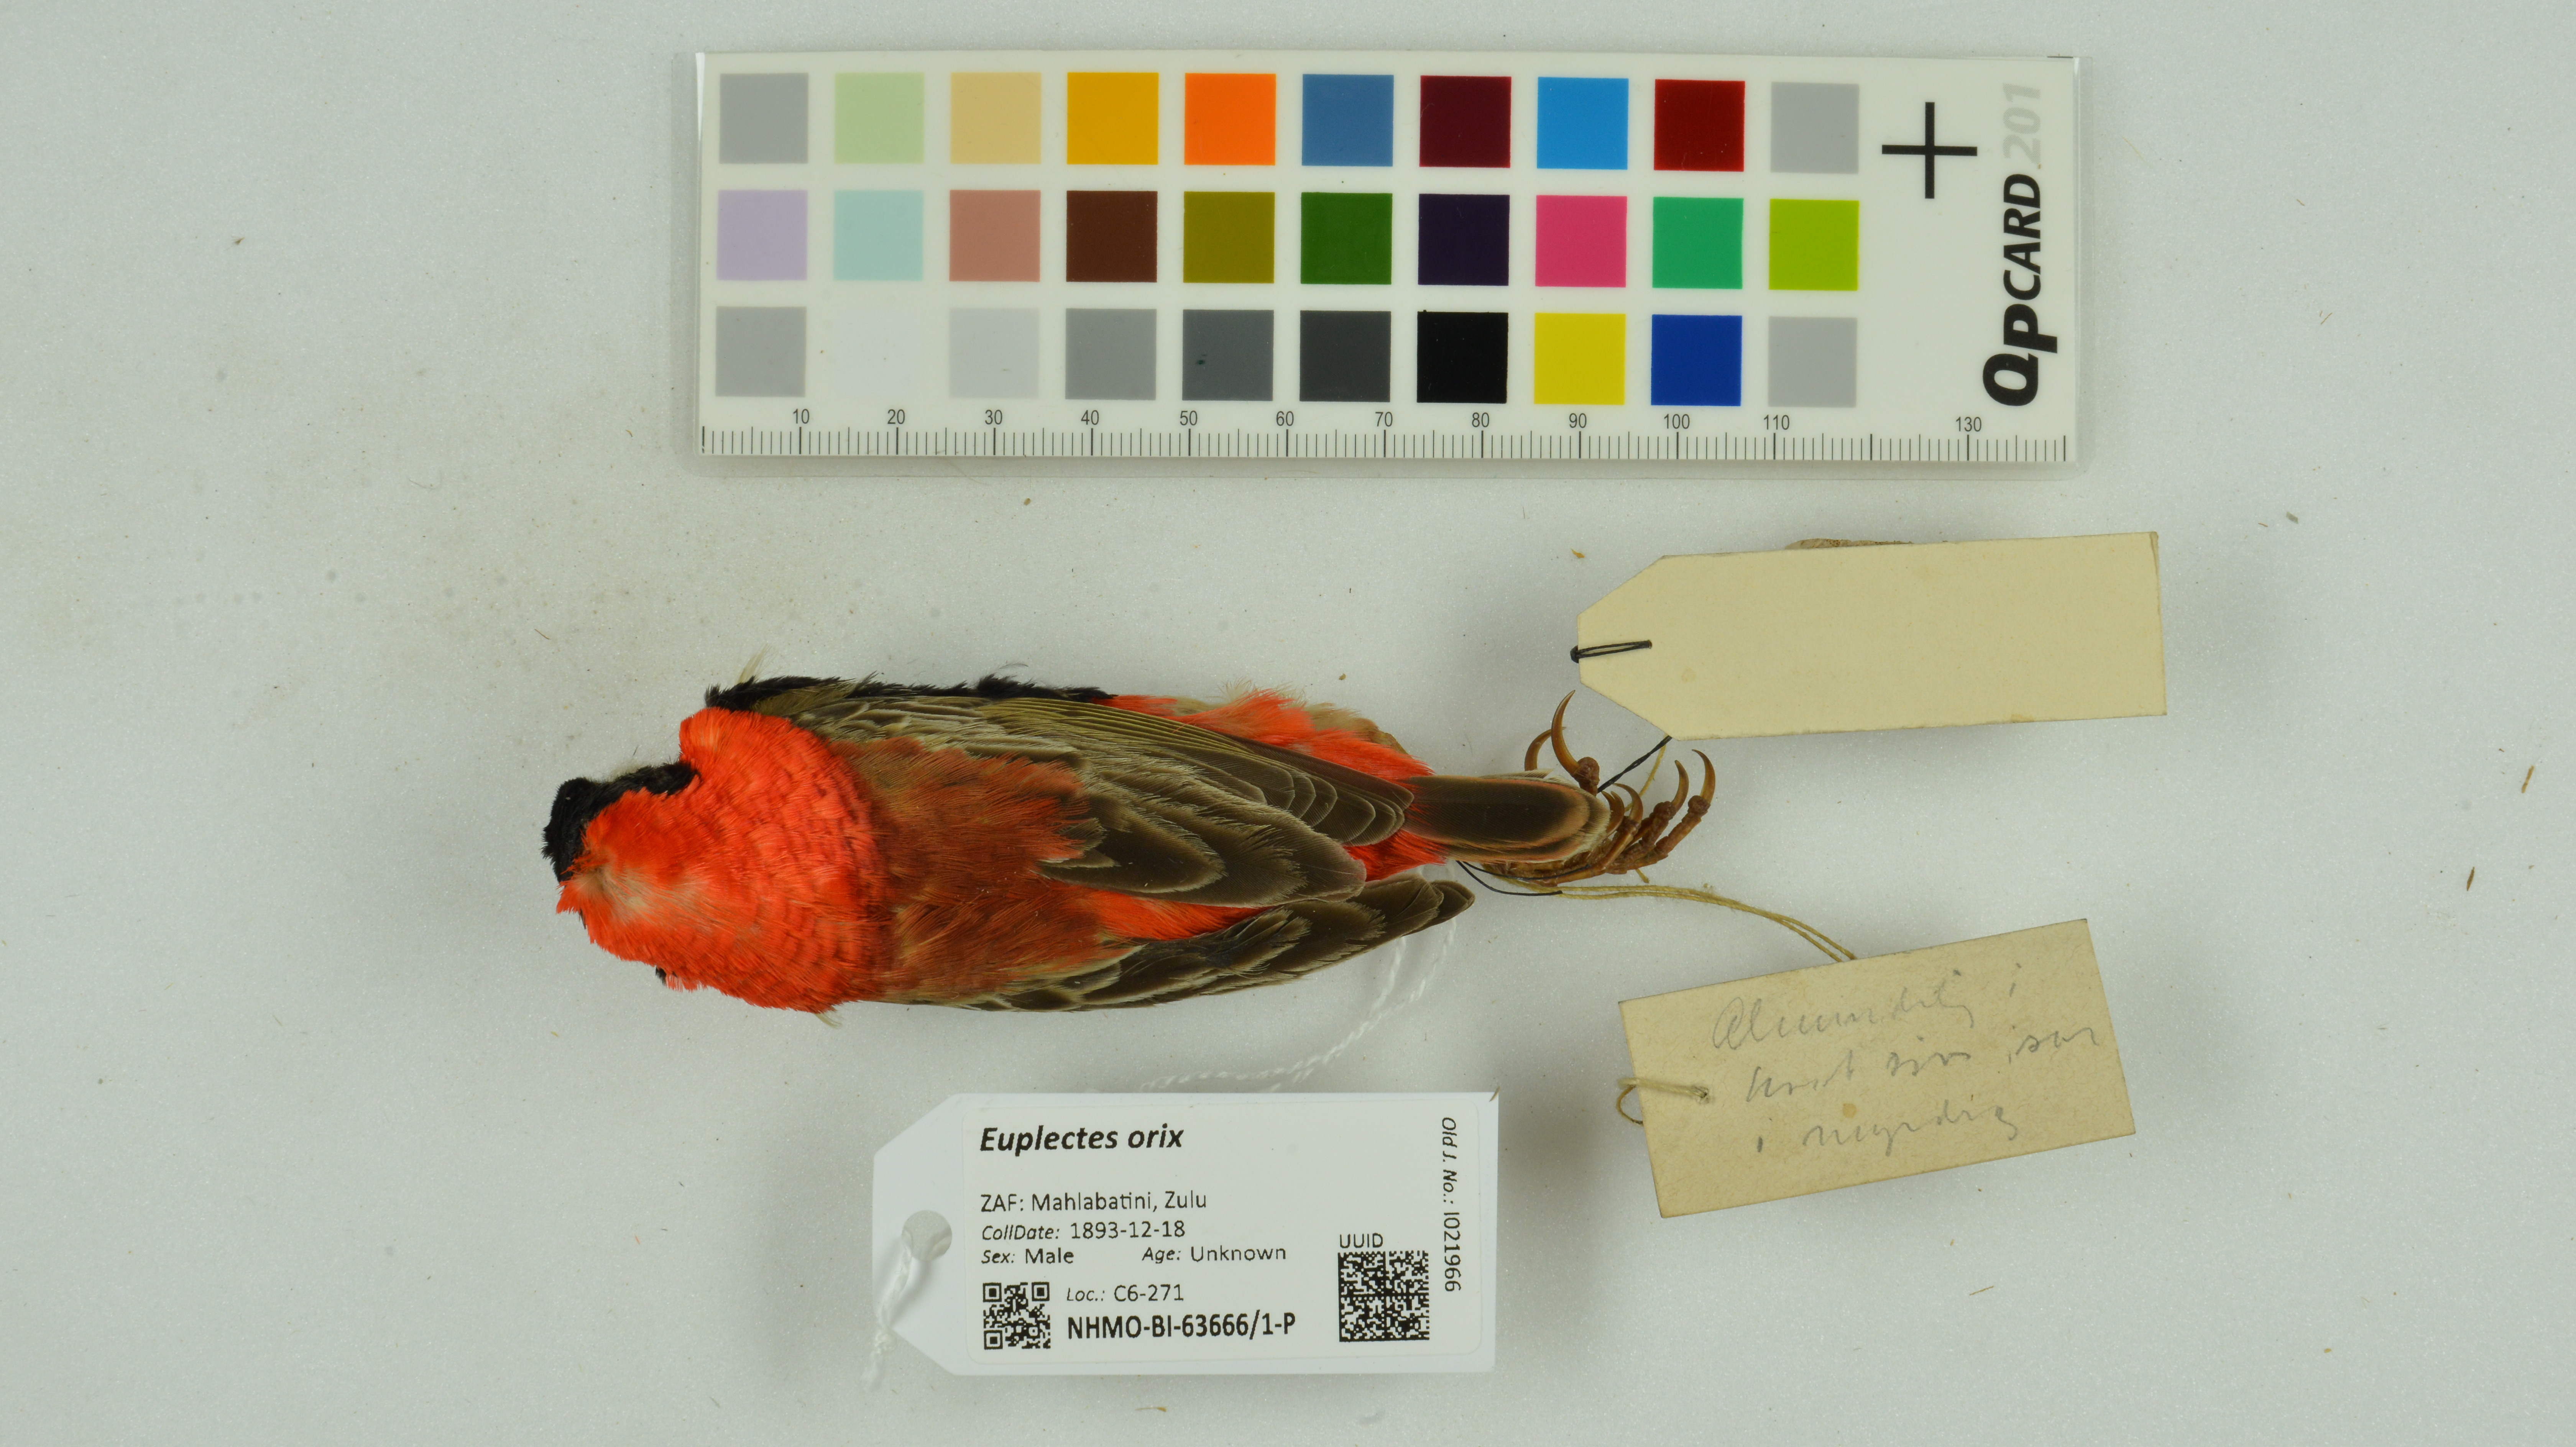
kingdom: Animalia
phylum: Chordata
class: Aves
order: Passeriformes
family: Ploceidae
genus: Euplectes
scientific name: Euplectes orix
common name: Southern red bishop
